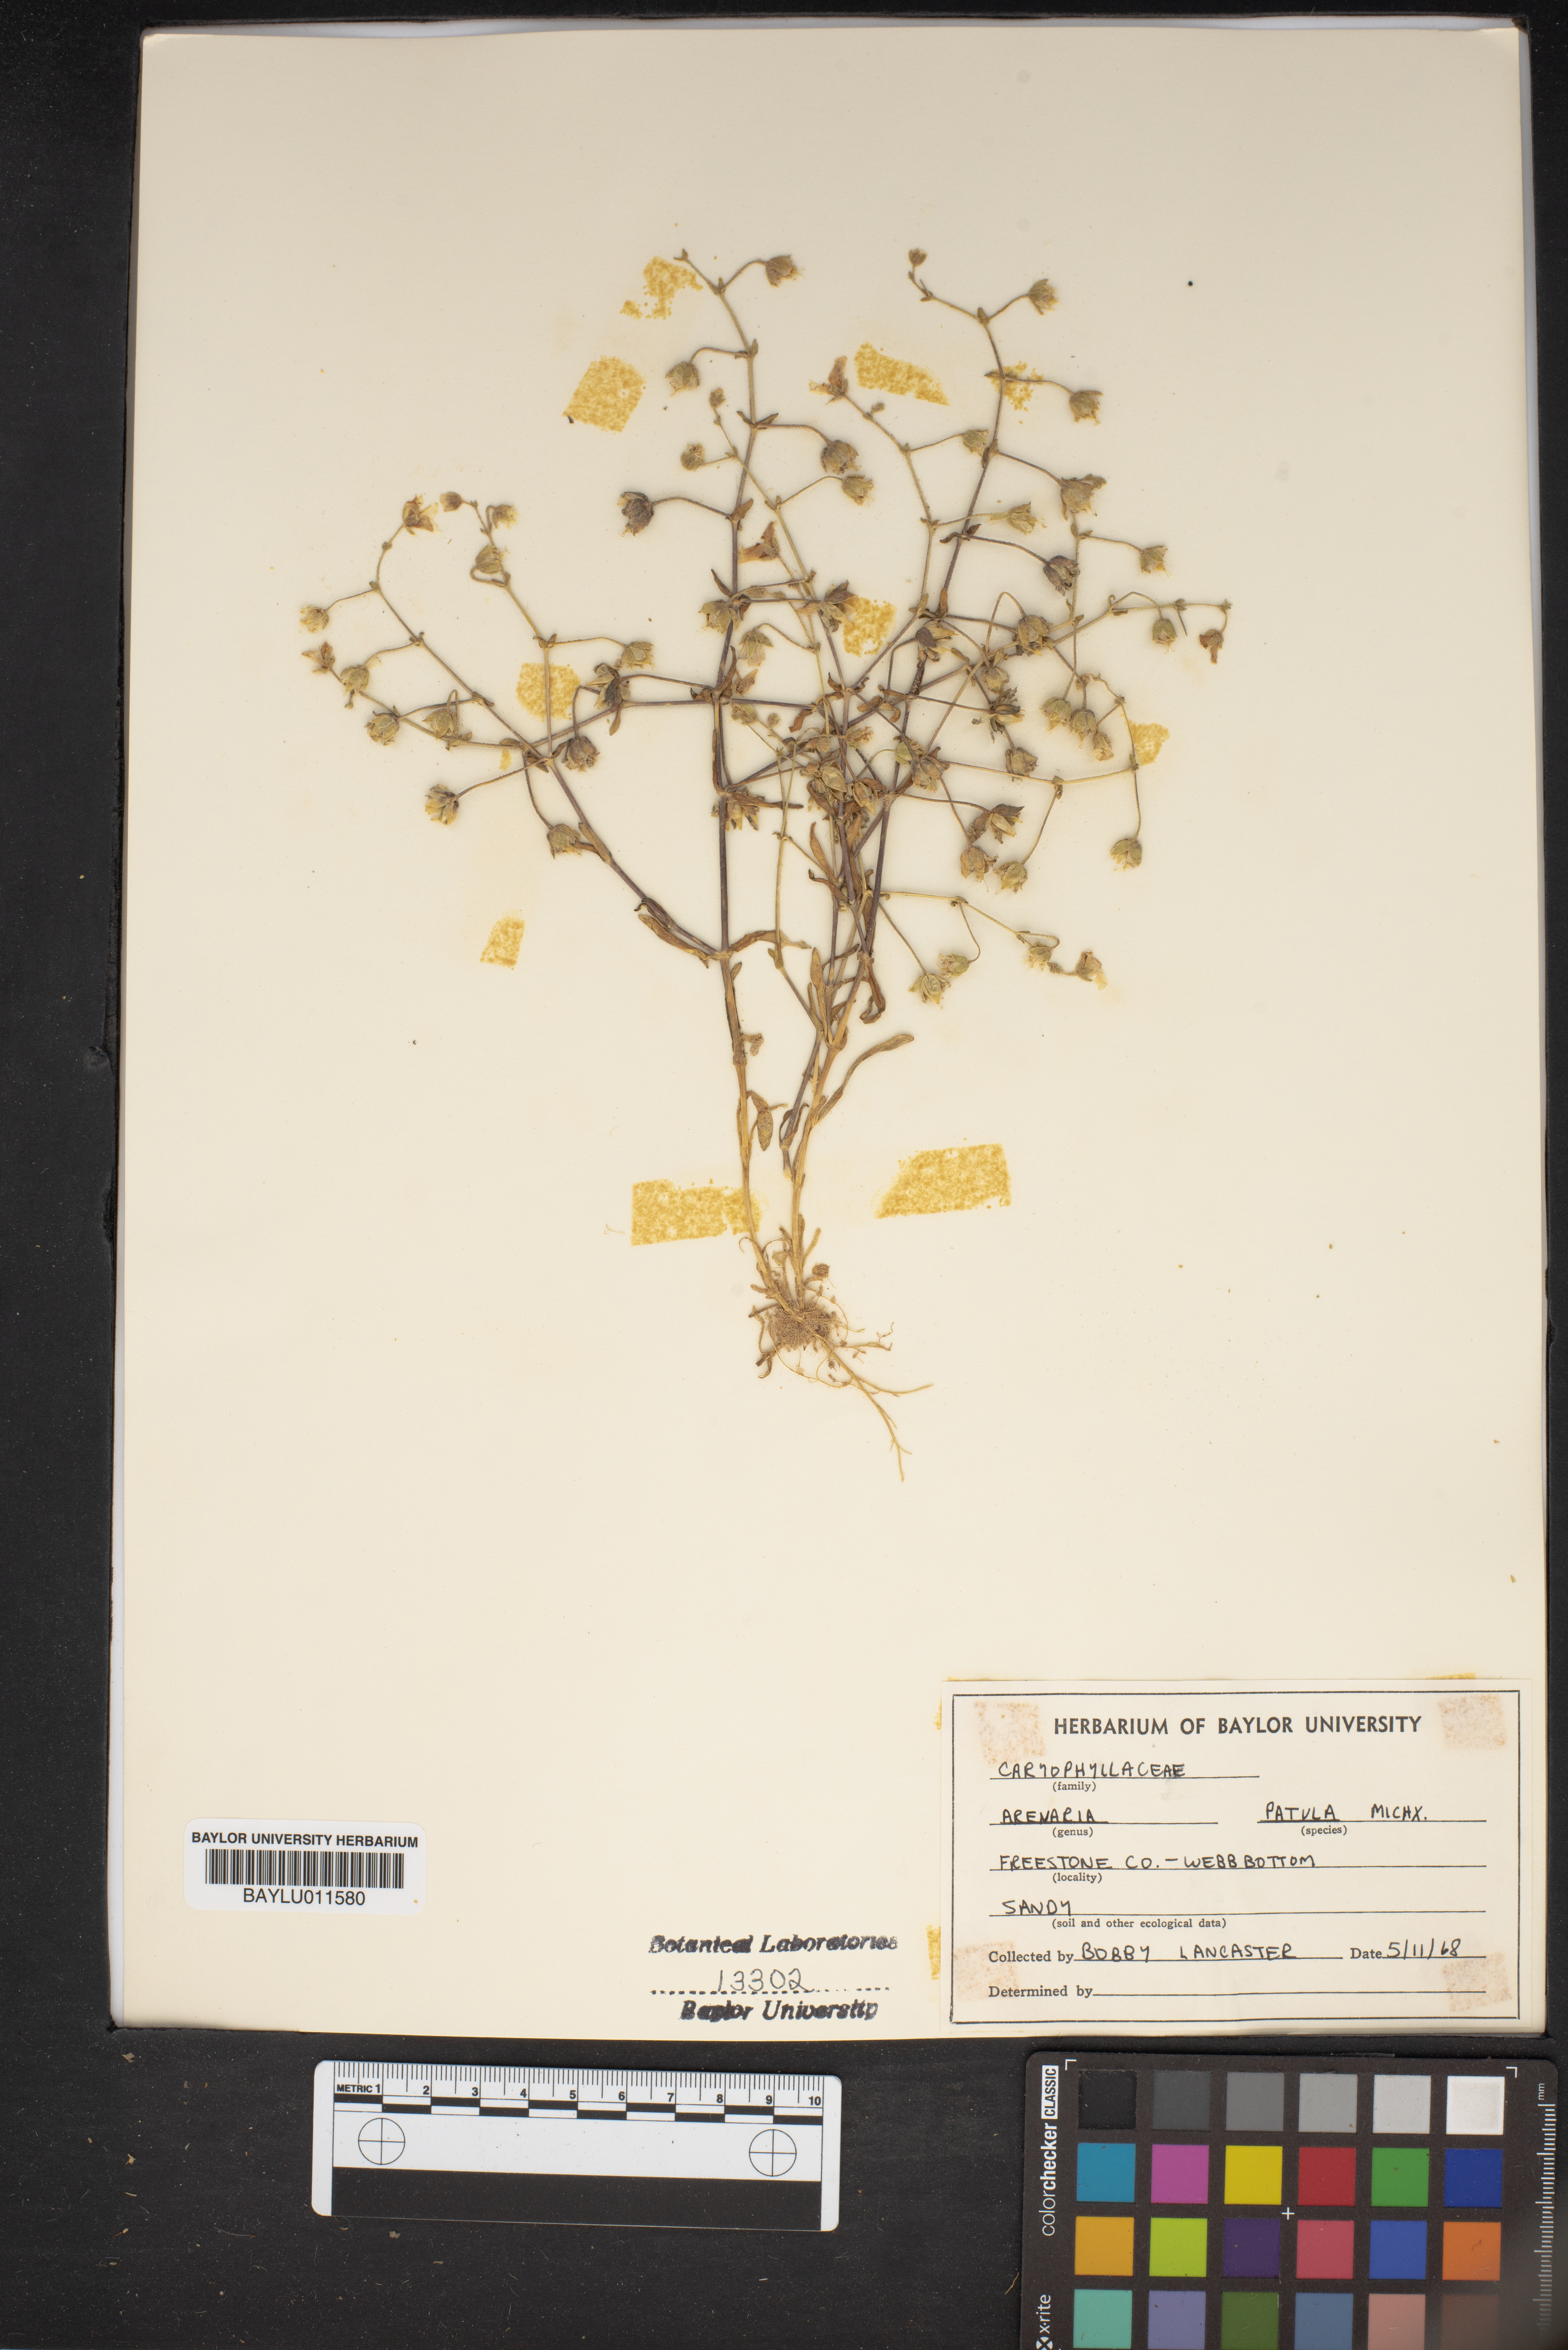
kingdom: Plantae
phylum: Tracheophyta
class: Magnoliopsida
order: Caryophyllales
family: Caryophyllaceae
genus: Mononeuria
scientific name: Mononeuria patula
